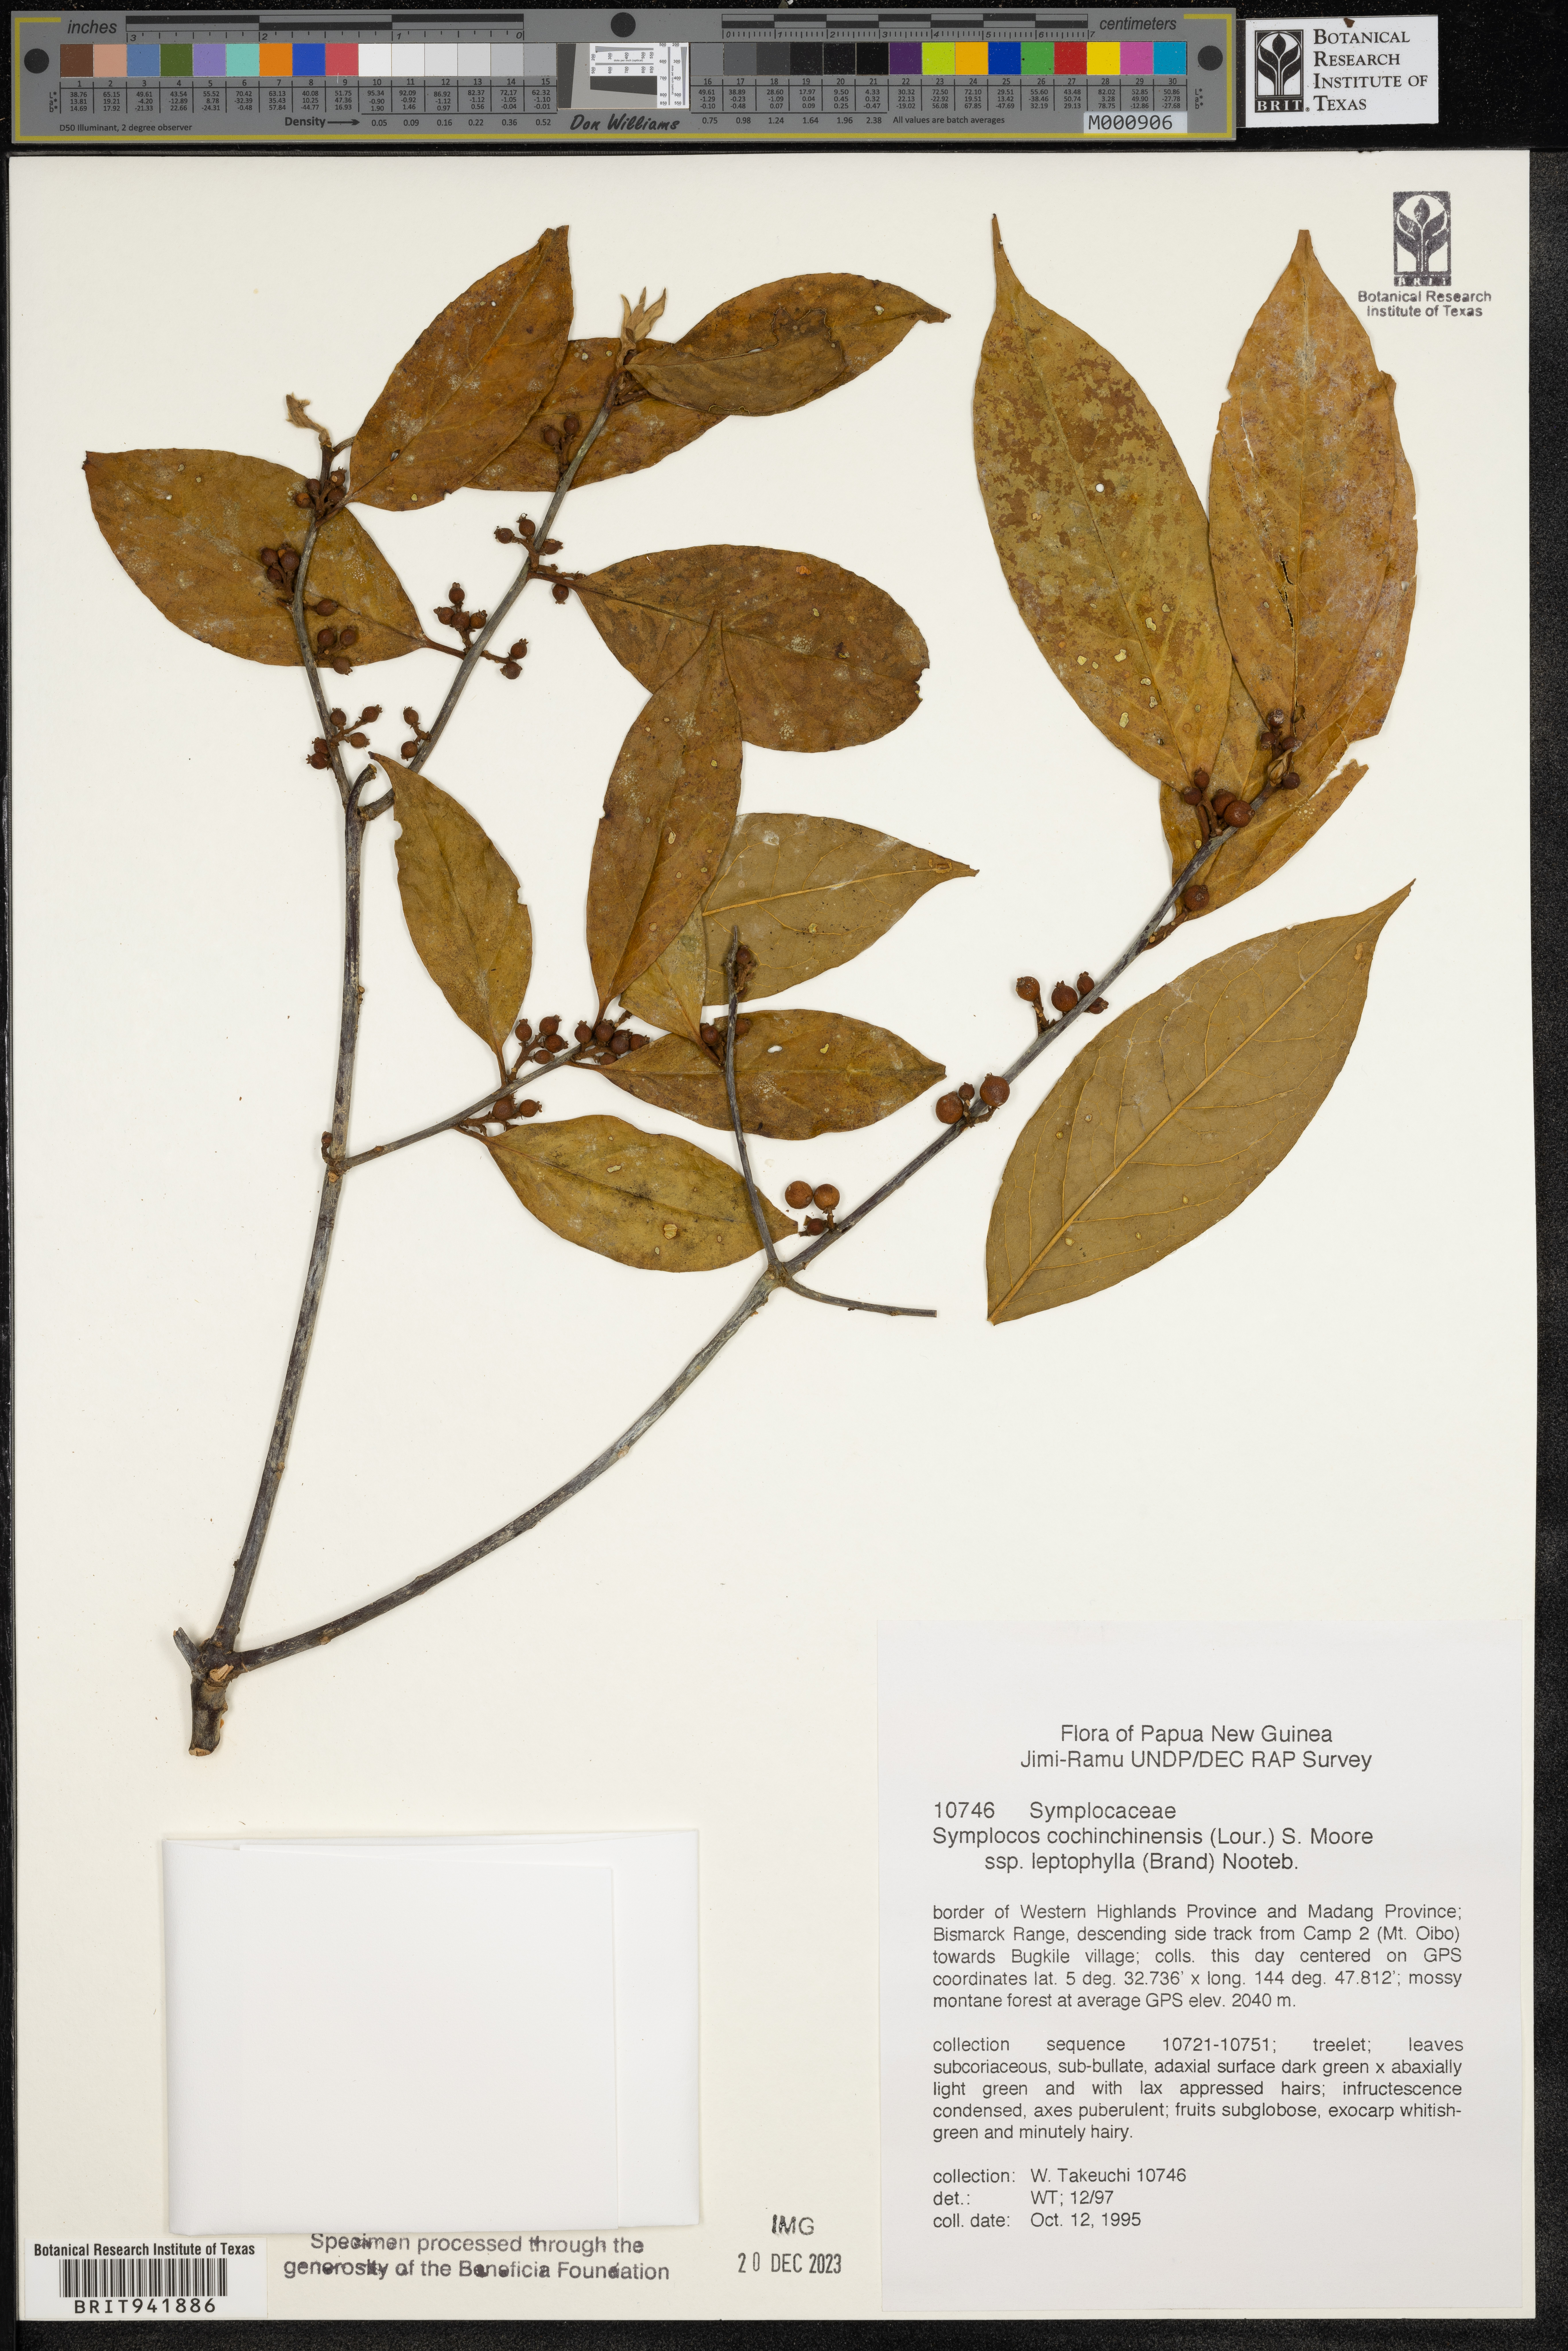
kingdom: Plantae
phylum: Tracheophyta
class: Magnoliopsida
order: Ericales
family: Symplocaceae
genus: Symplocos
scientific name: Symplocos cochinchinensis
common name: Buff hazelwood
